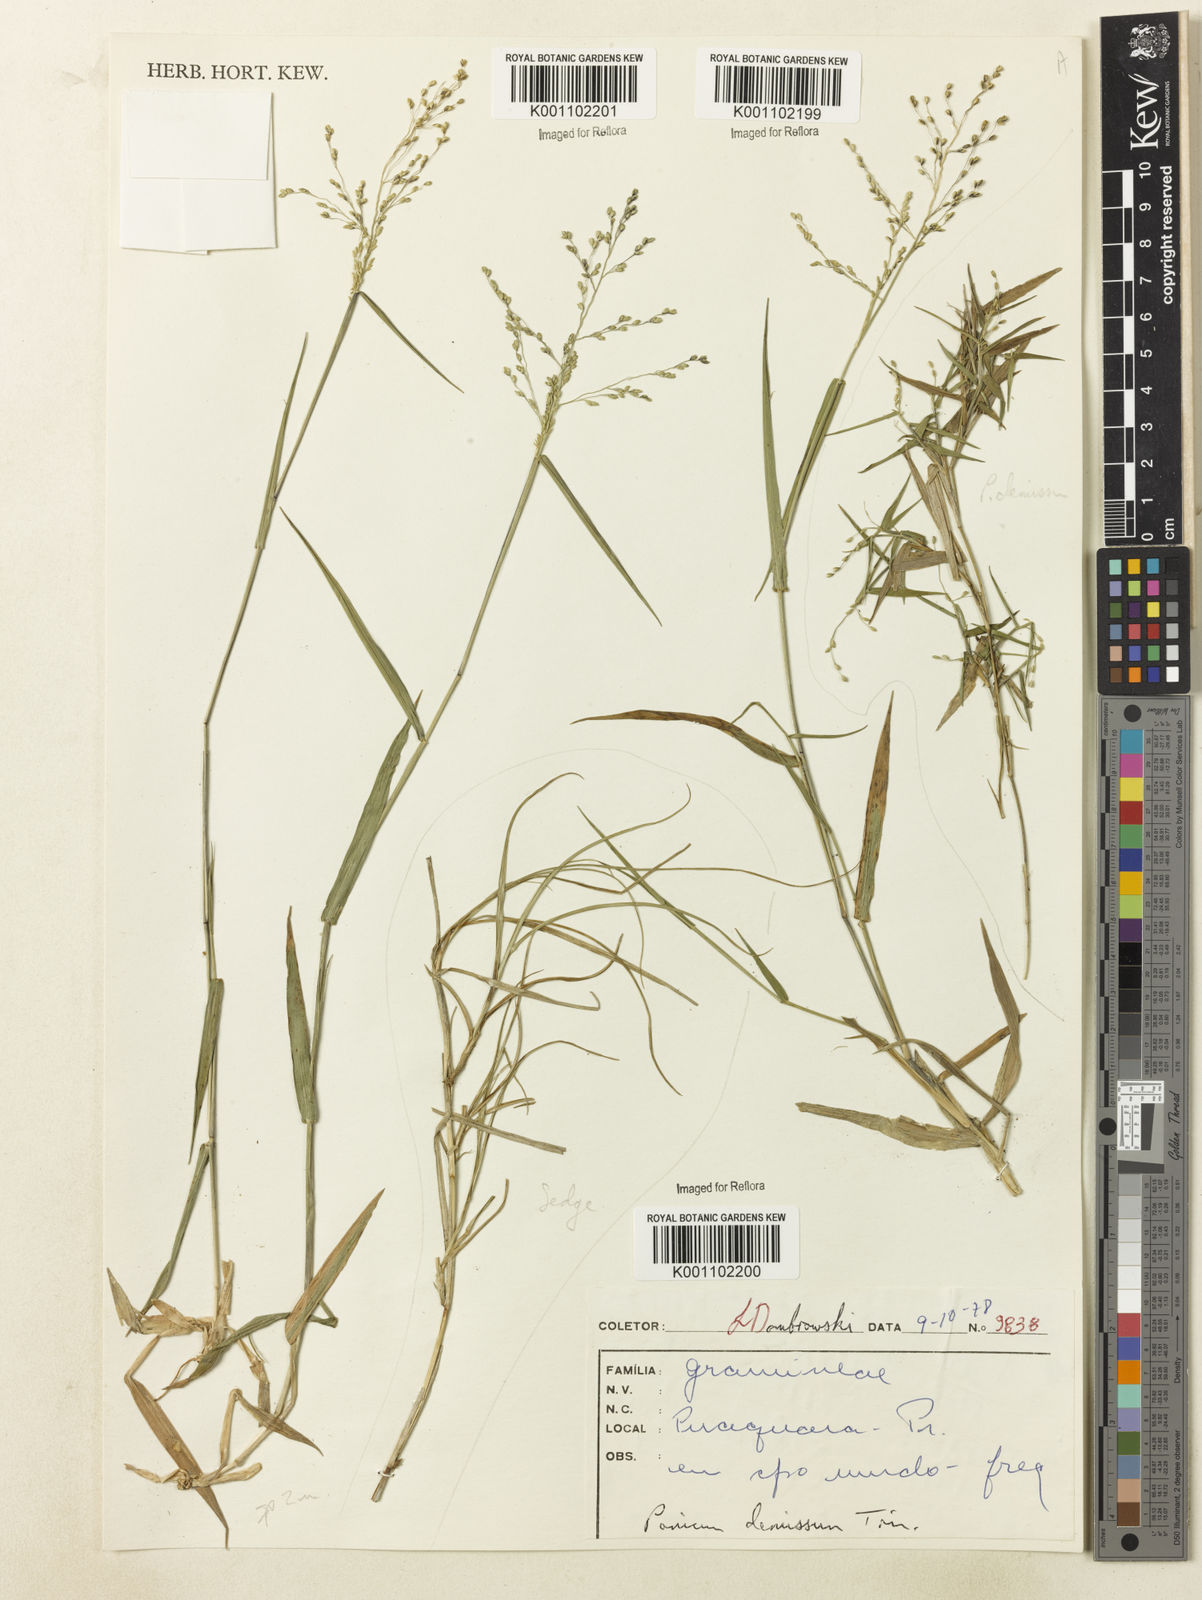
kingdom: Plantae
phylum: Tracheophyta
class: Liliopsida
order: Poales
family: Poaceae
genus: Dichanthelium
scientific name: Dichanthelium sabulorum
